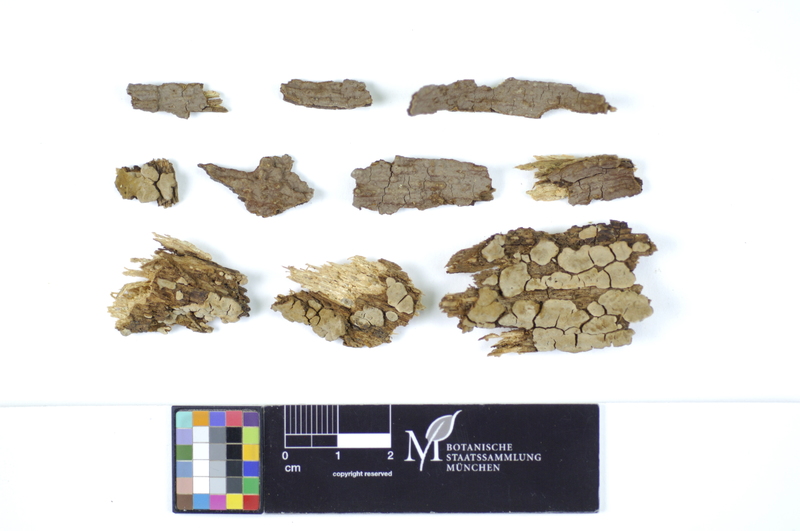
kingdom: Fungi
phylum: Basidiomycota
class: Agaricomycetes
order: Hymenochaetales
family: Hymenochaetaceae
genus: Hymenochaete
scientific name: Hymenochaete fuliginosa
